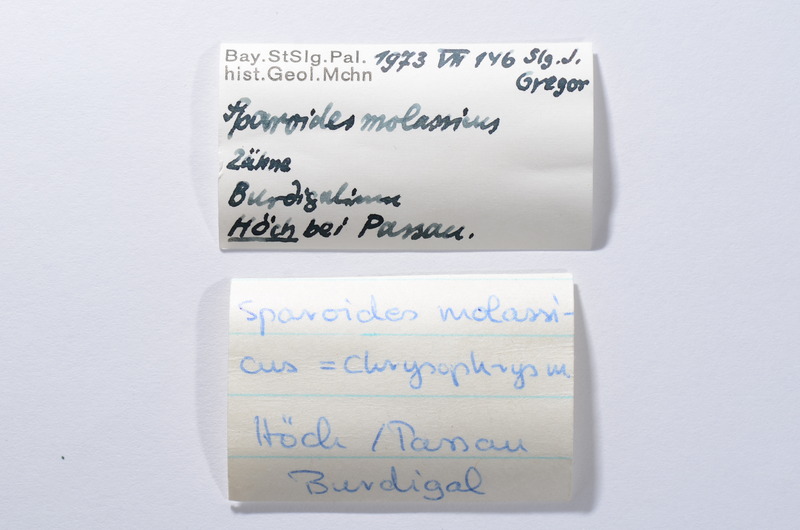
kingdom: Animalia
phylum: Chordata
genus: Sparoides
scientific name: Sparoides
